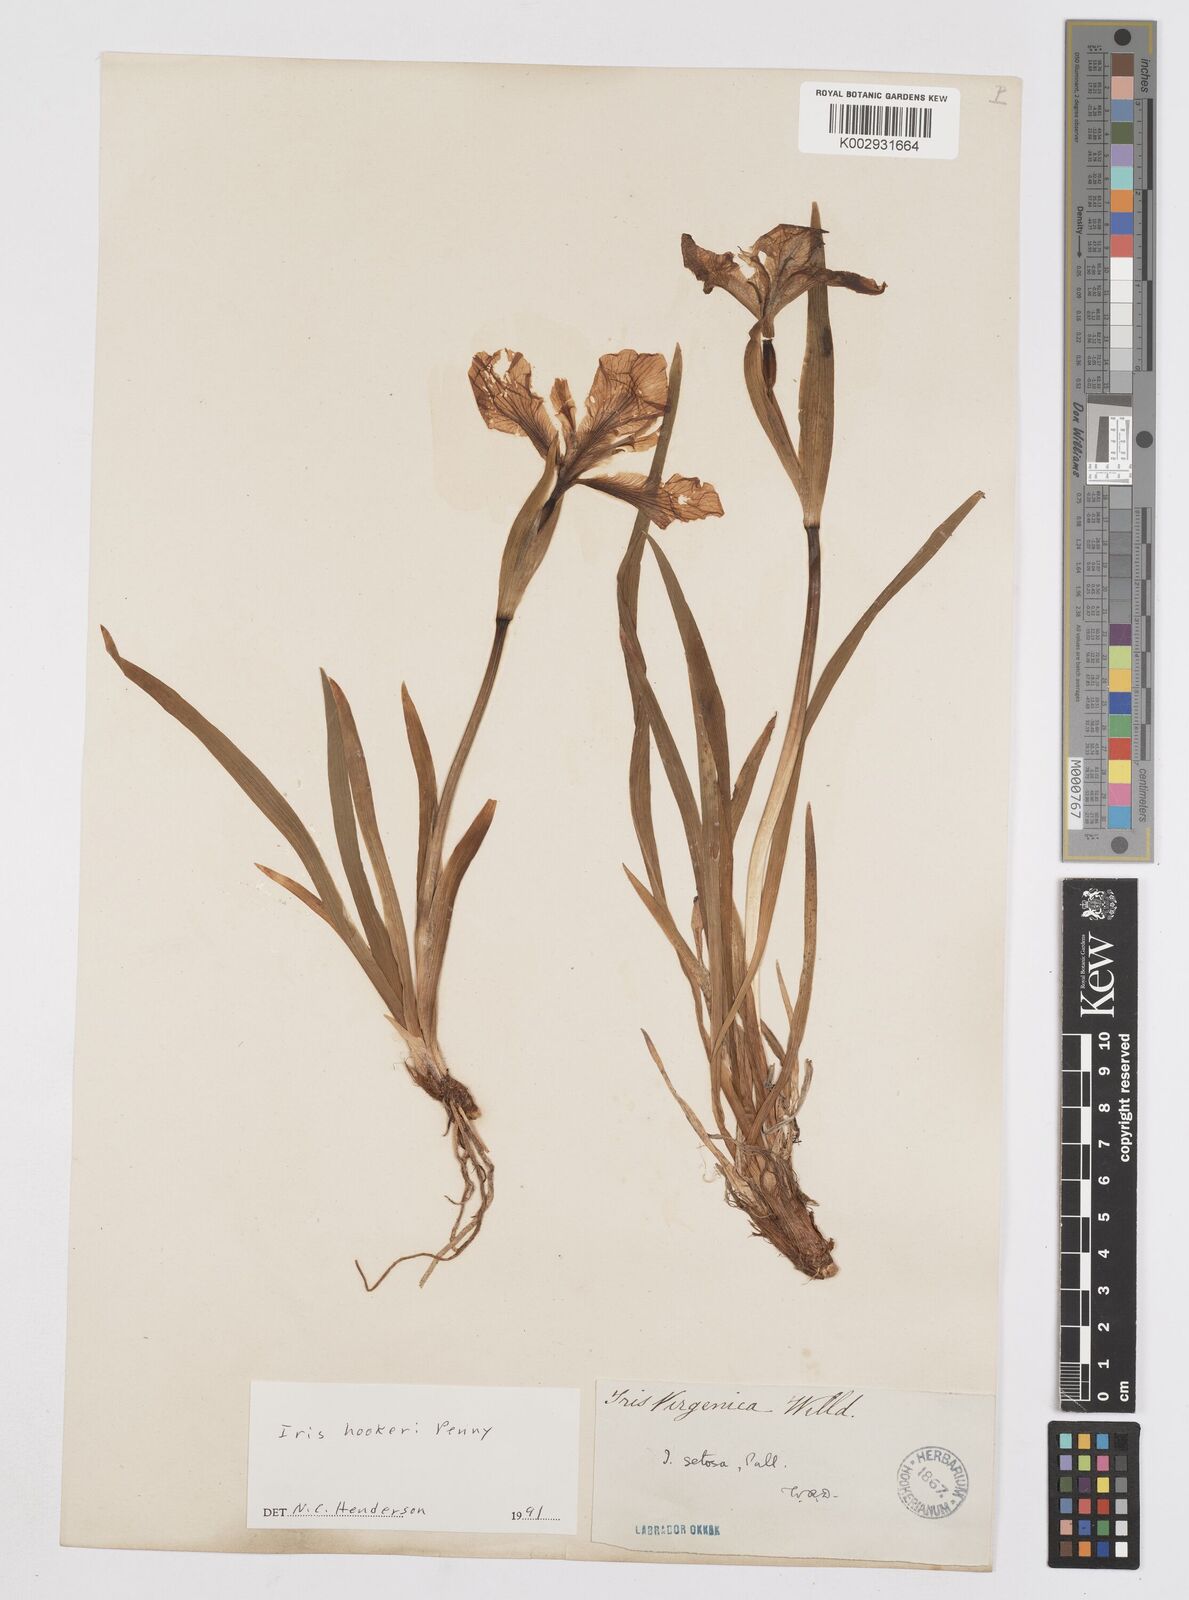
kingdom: Plantae
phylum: Tracheophyta
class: Liliopsida
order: Asparagales
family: Iridaceae
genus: Iris
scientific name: Iris setosa
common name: Arctic blue flag
